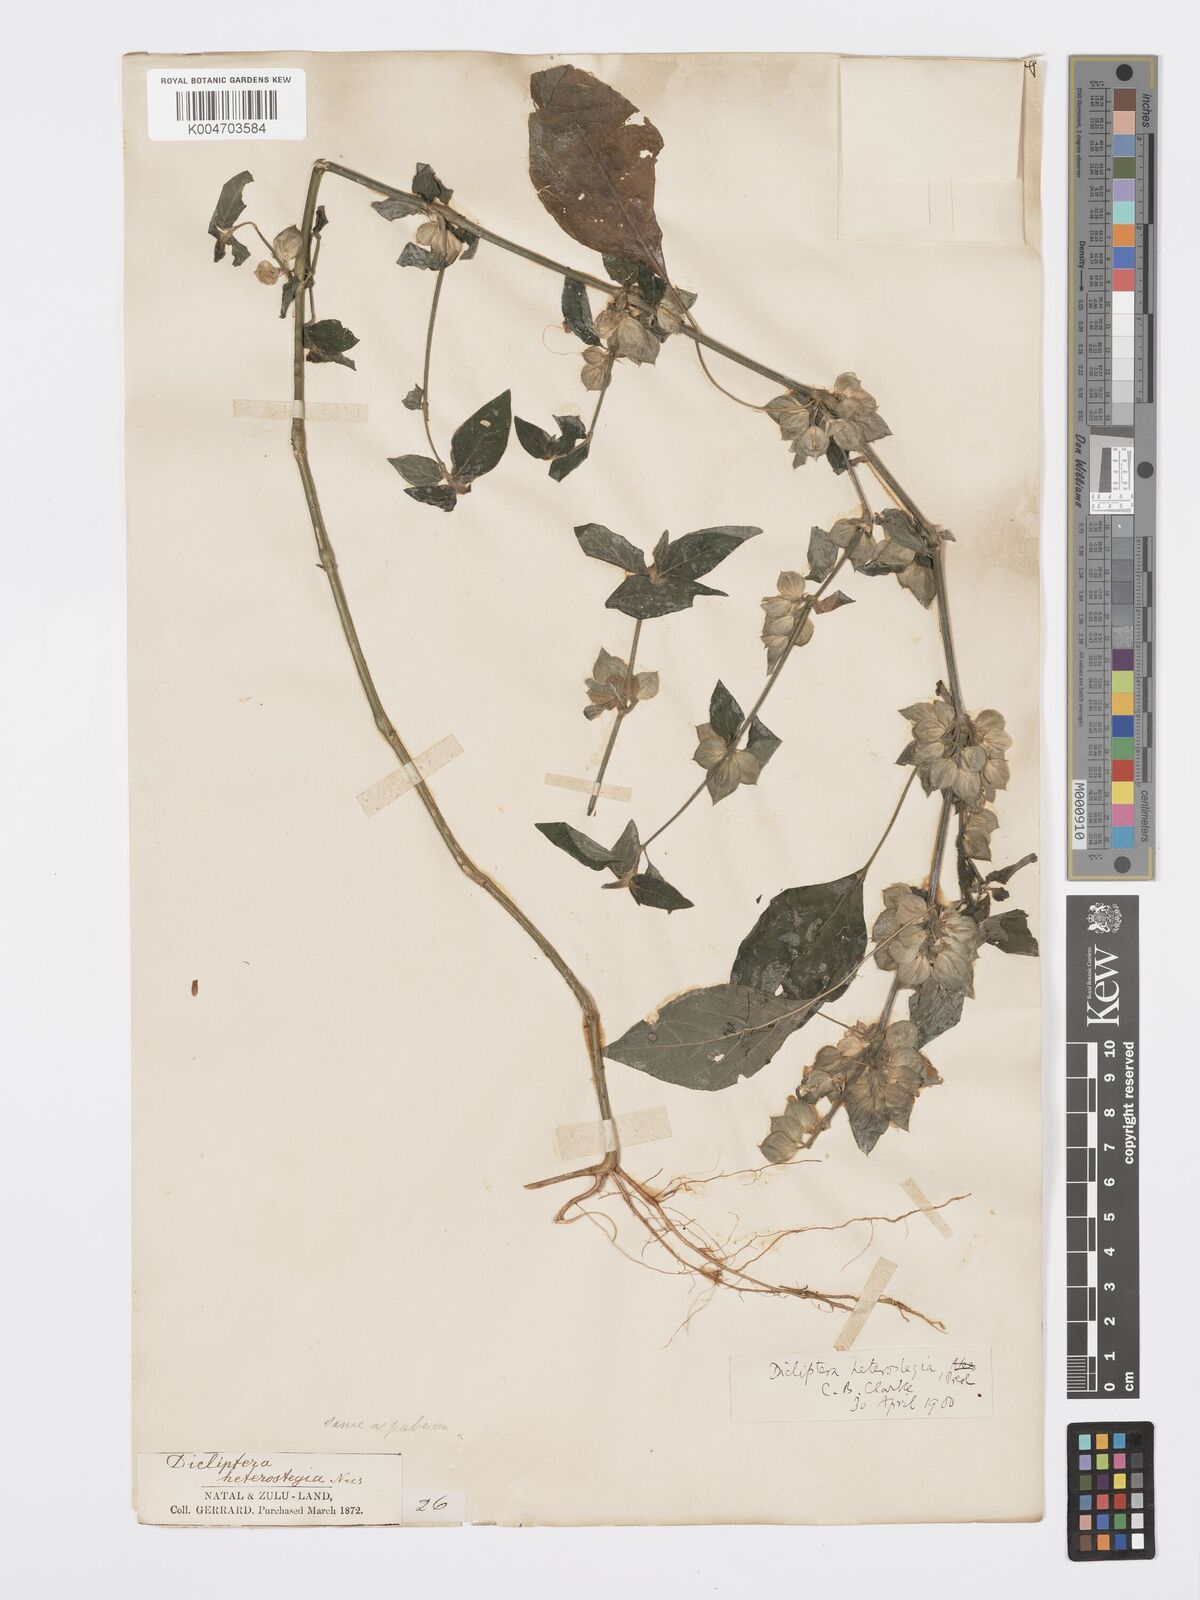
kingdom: Plantae
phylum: Tracheophyta
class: Magnoliopsida
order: Lamiales
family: Acanthaceae
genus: Dicliptera
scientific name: Dicliptera heterostegia
